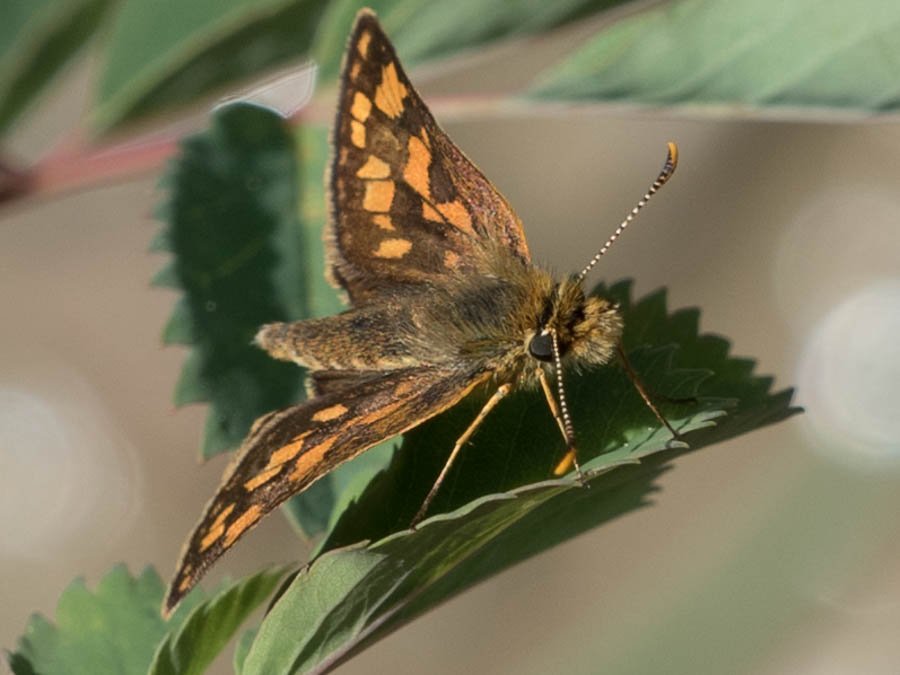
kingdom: Animalia
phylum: Arthropoda
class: Insecta
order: Lepidoptera
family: Hesperiidae
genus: Carterocephalus
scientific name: Carterocephalus palaemon
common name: Chequered Skipper
